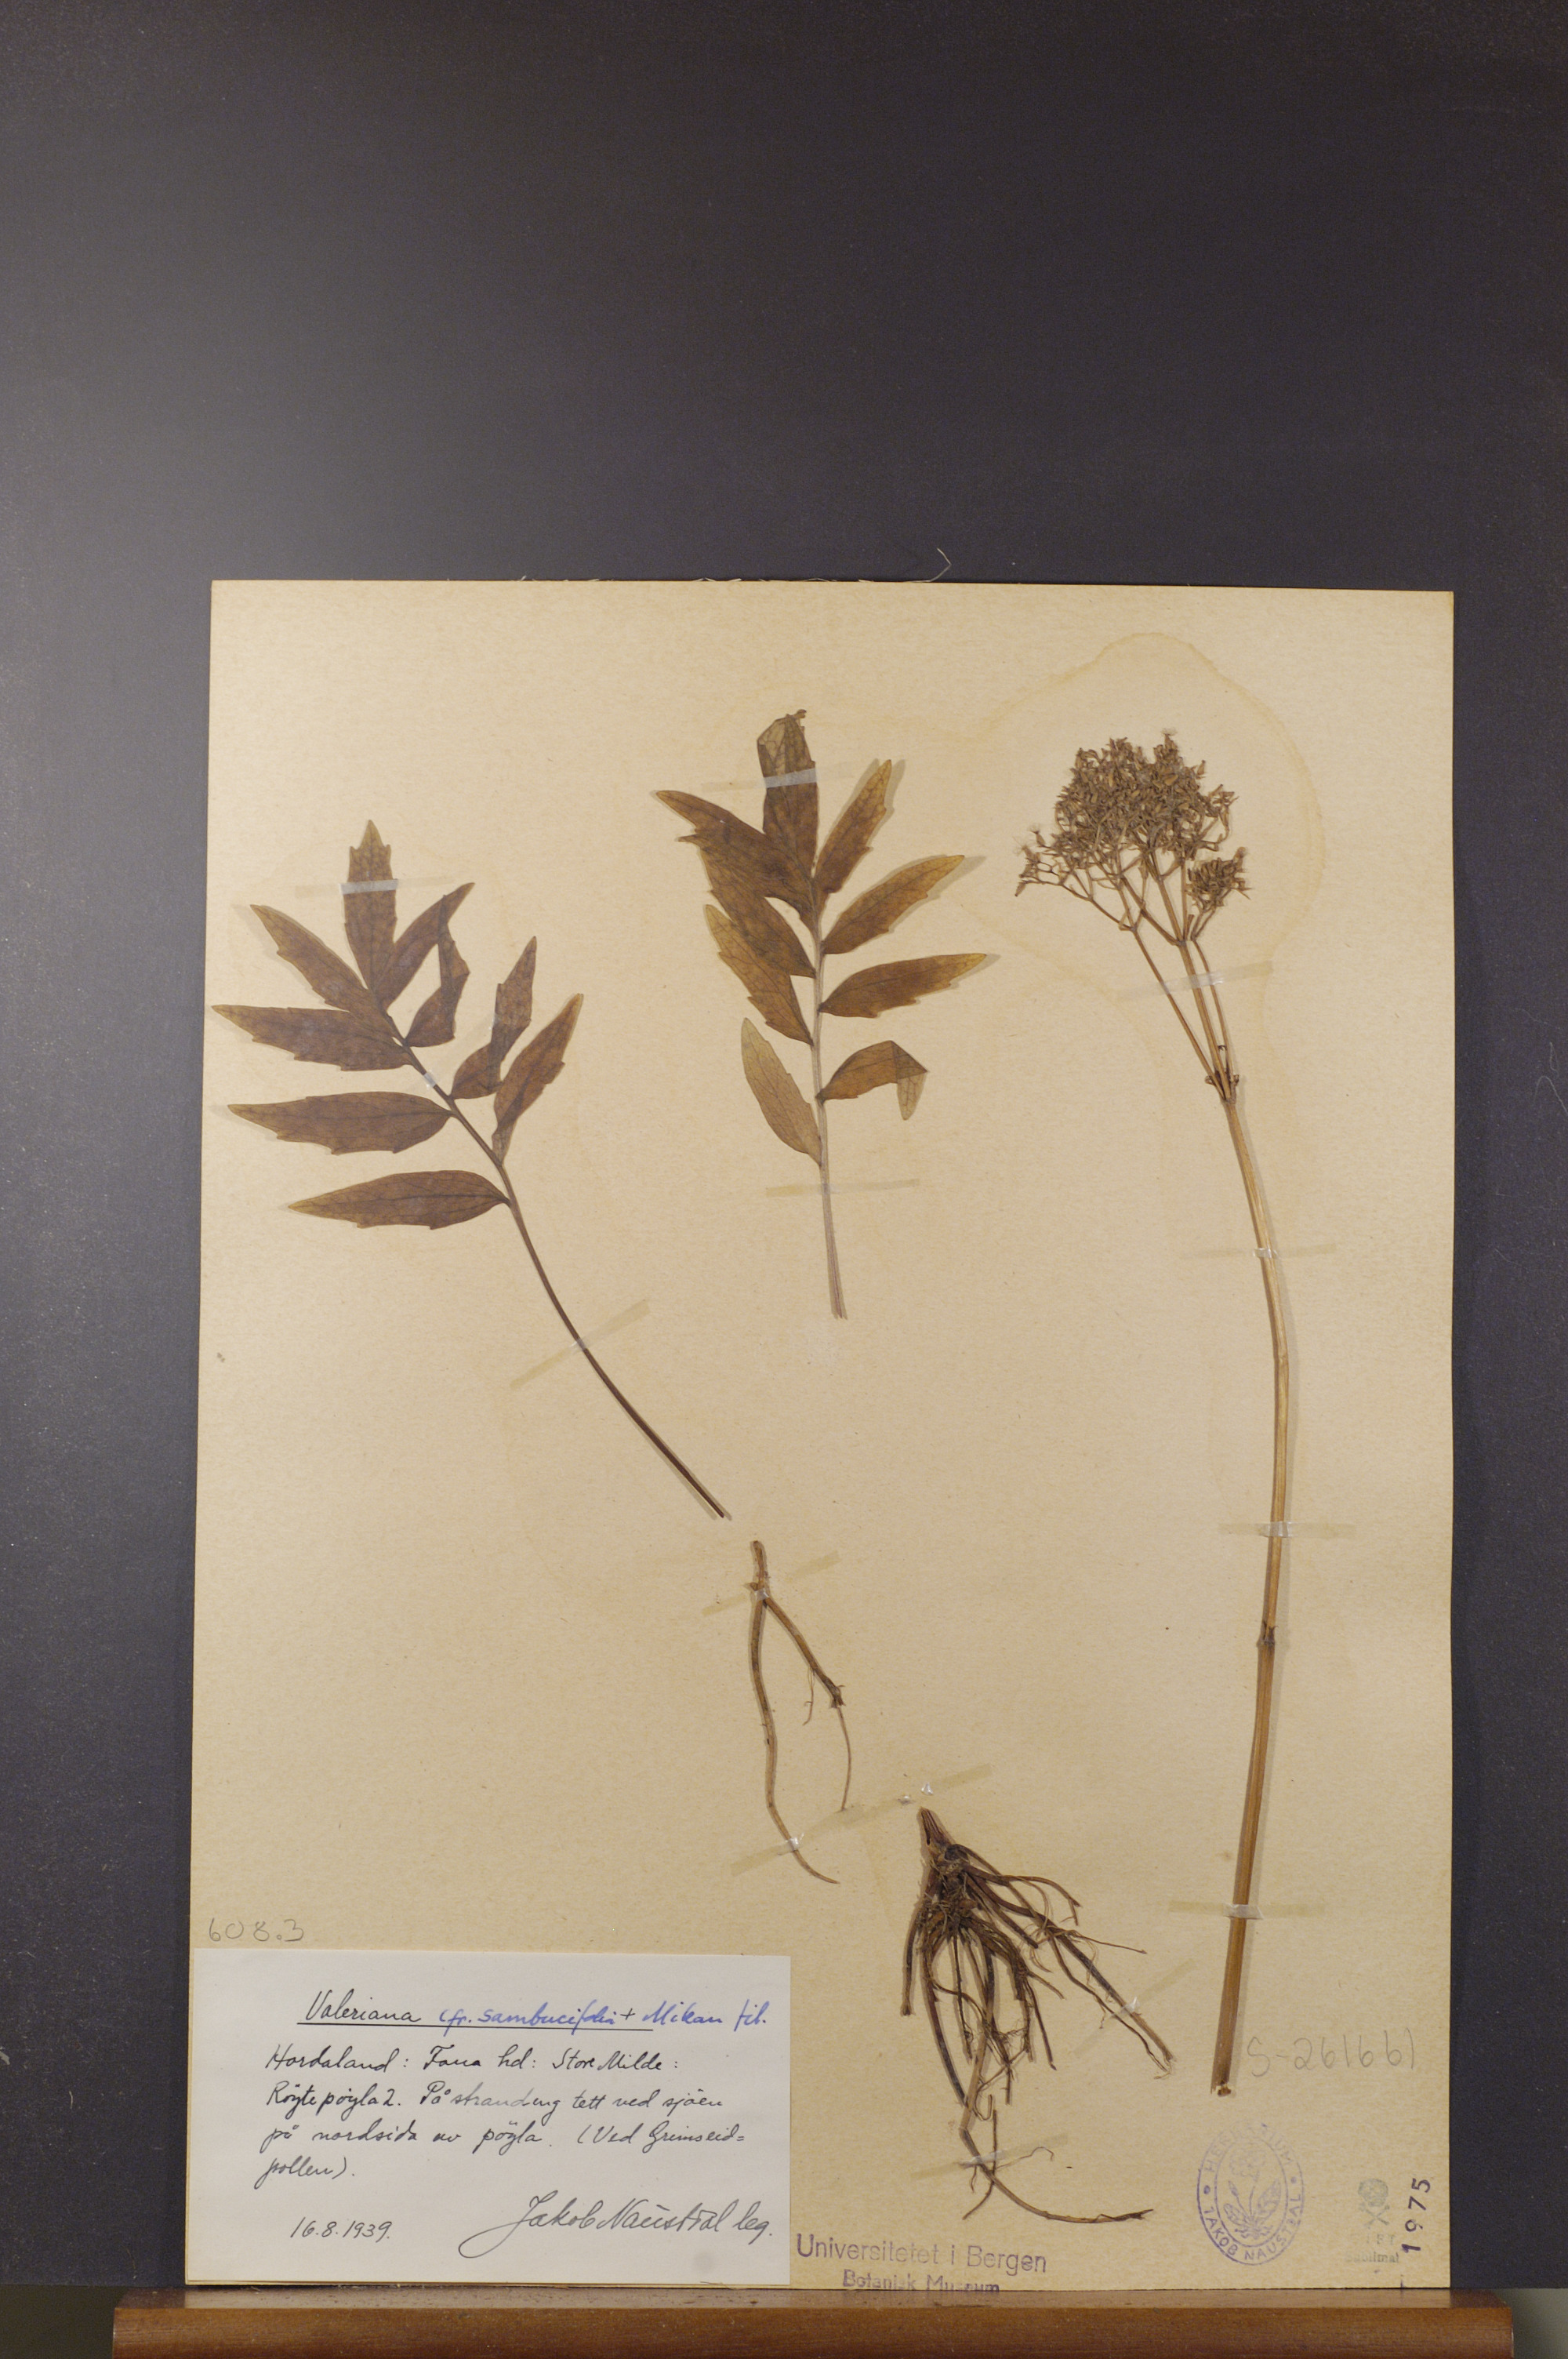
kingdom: Plantae
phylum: Tracheophyta
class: Magnoliopsida
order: Dipsacales
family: Caprifoliaceae
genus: Valeriana
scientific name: Valeriana excelsa
